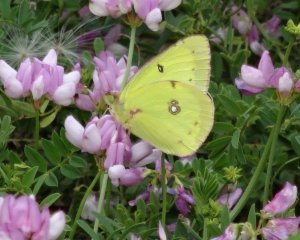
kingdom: Animalia
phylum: Arthropoda
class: Insecta
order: Lepidoptera
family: Pieridae
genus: Colias
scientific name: Colias philodice
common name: Clouded Sulphur
